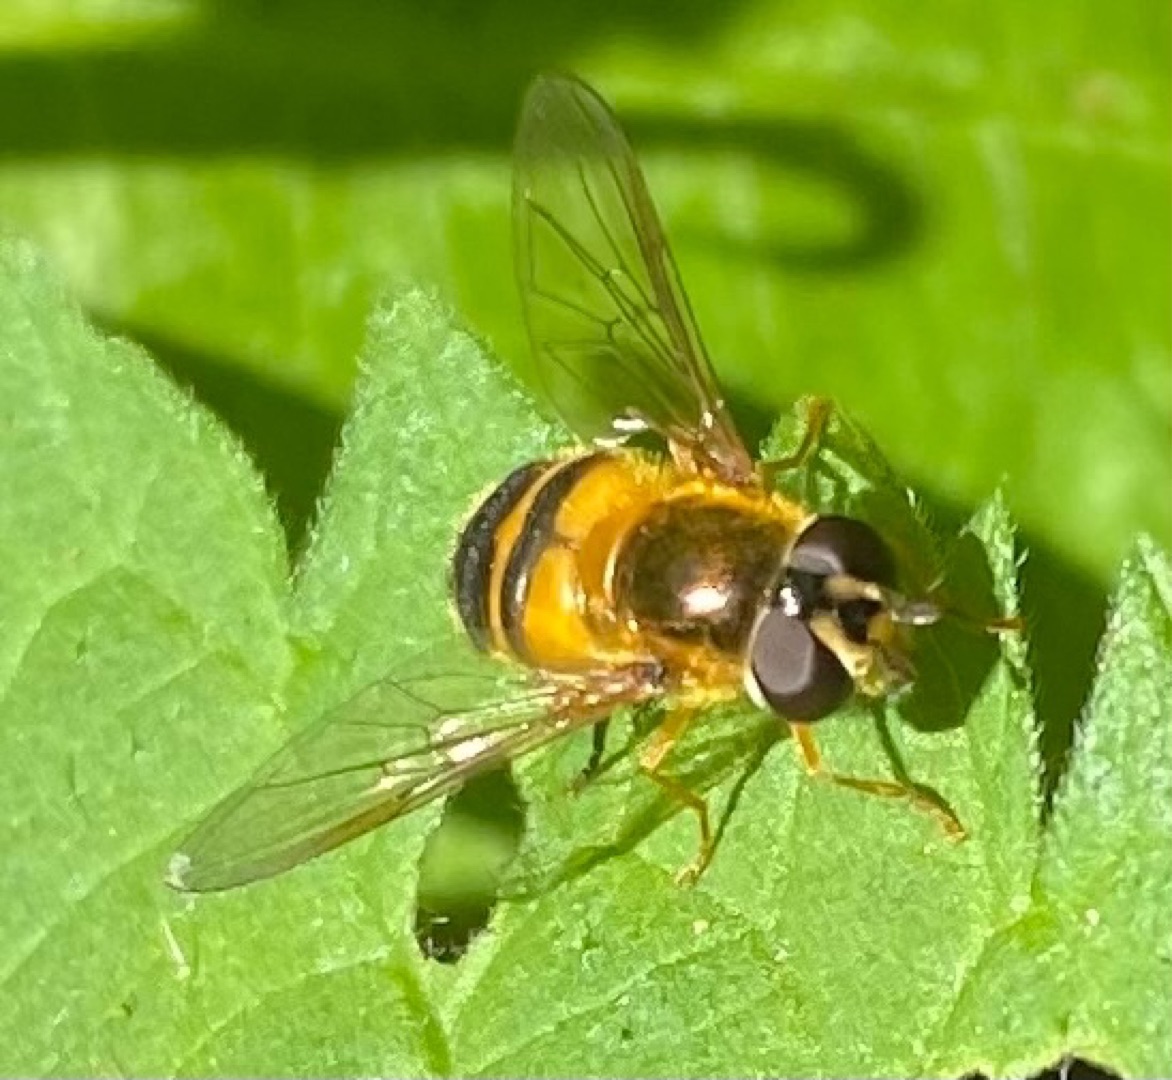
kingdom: Animalia
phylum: Arthropoda
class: Insecta
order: Diptera
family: Syrphidae
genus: Epistrophe
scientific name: Epistrophe eligans
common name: Rødgul glanssvirreflue
